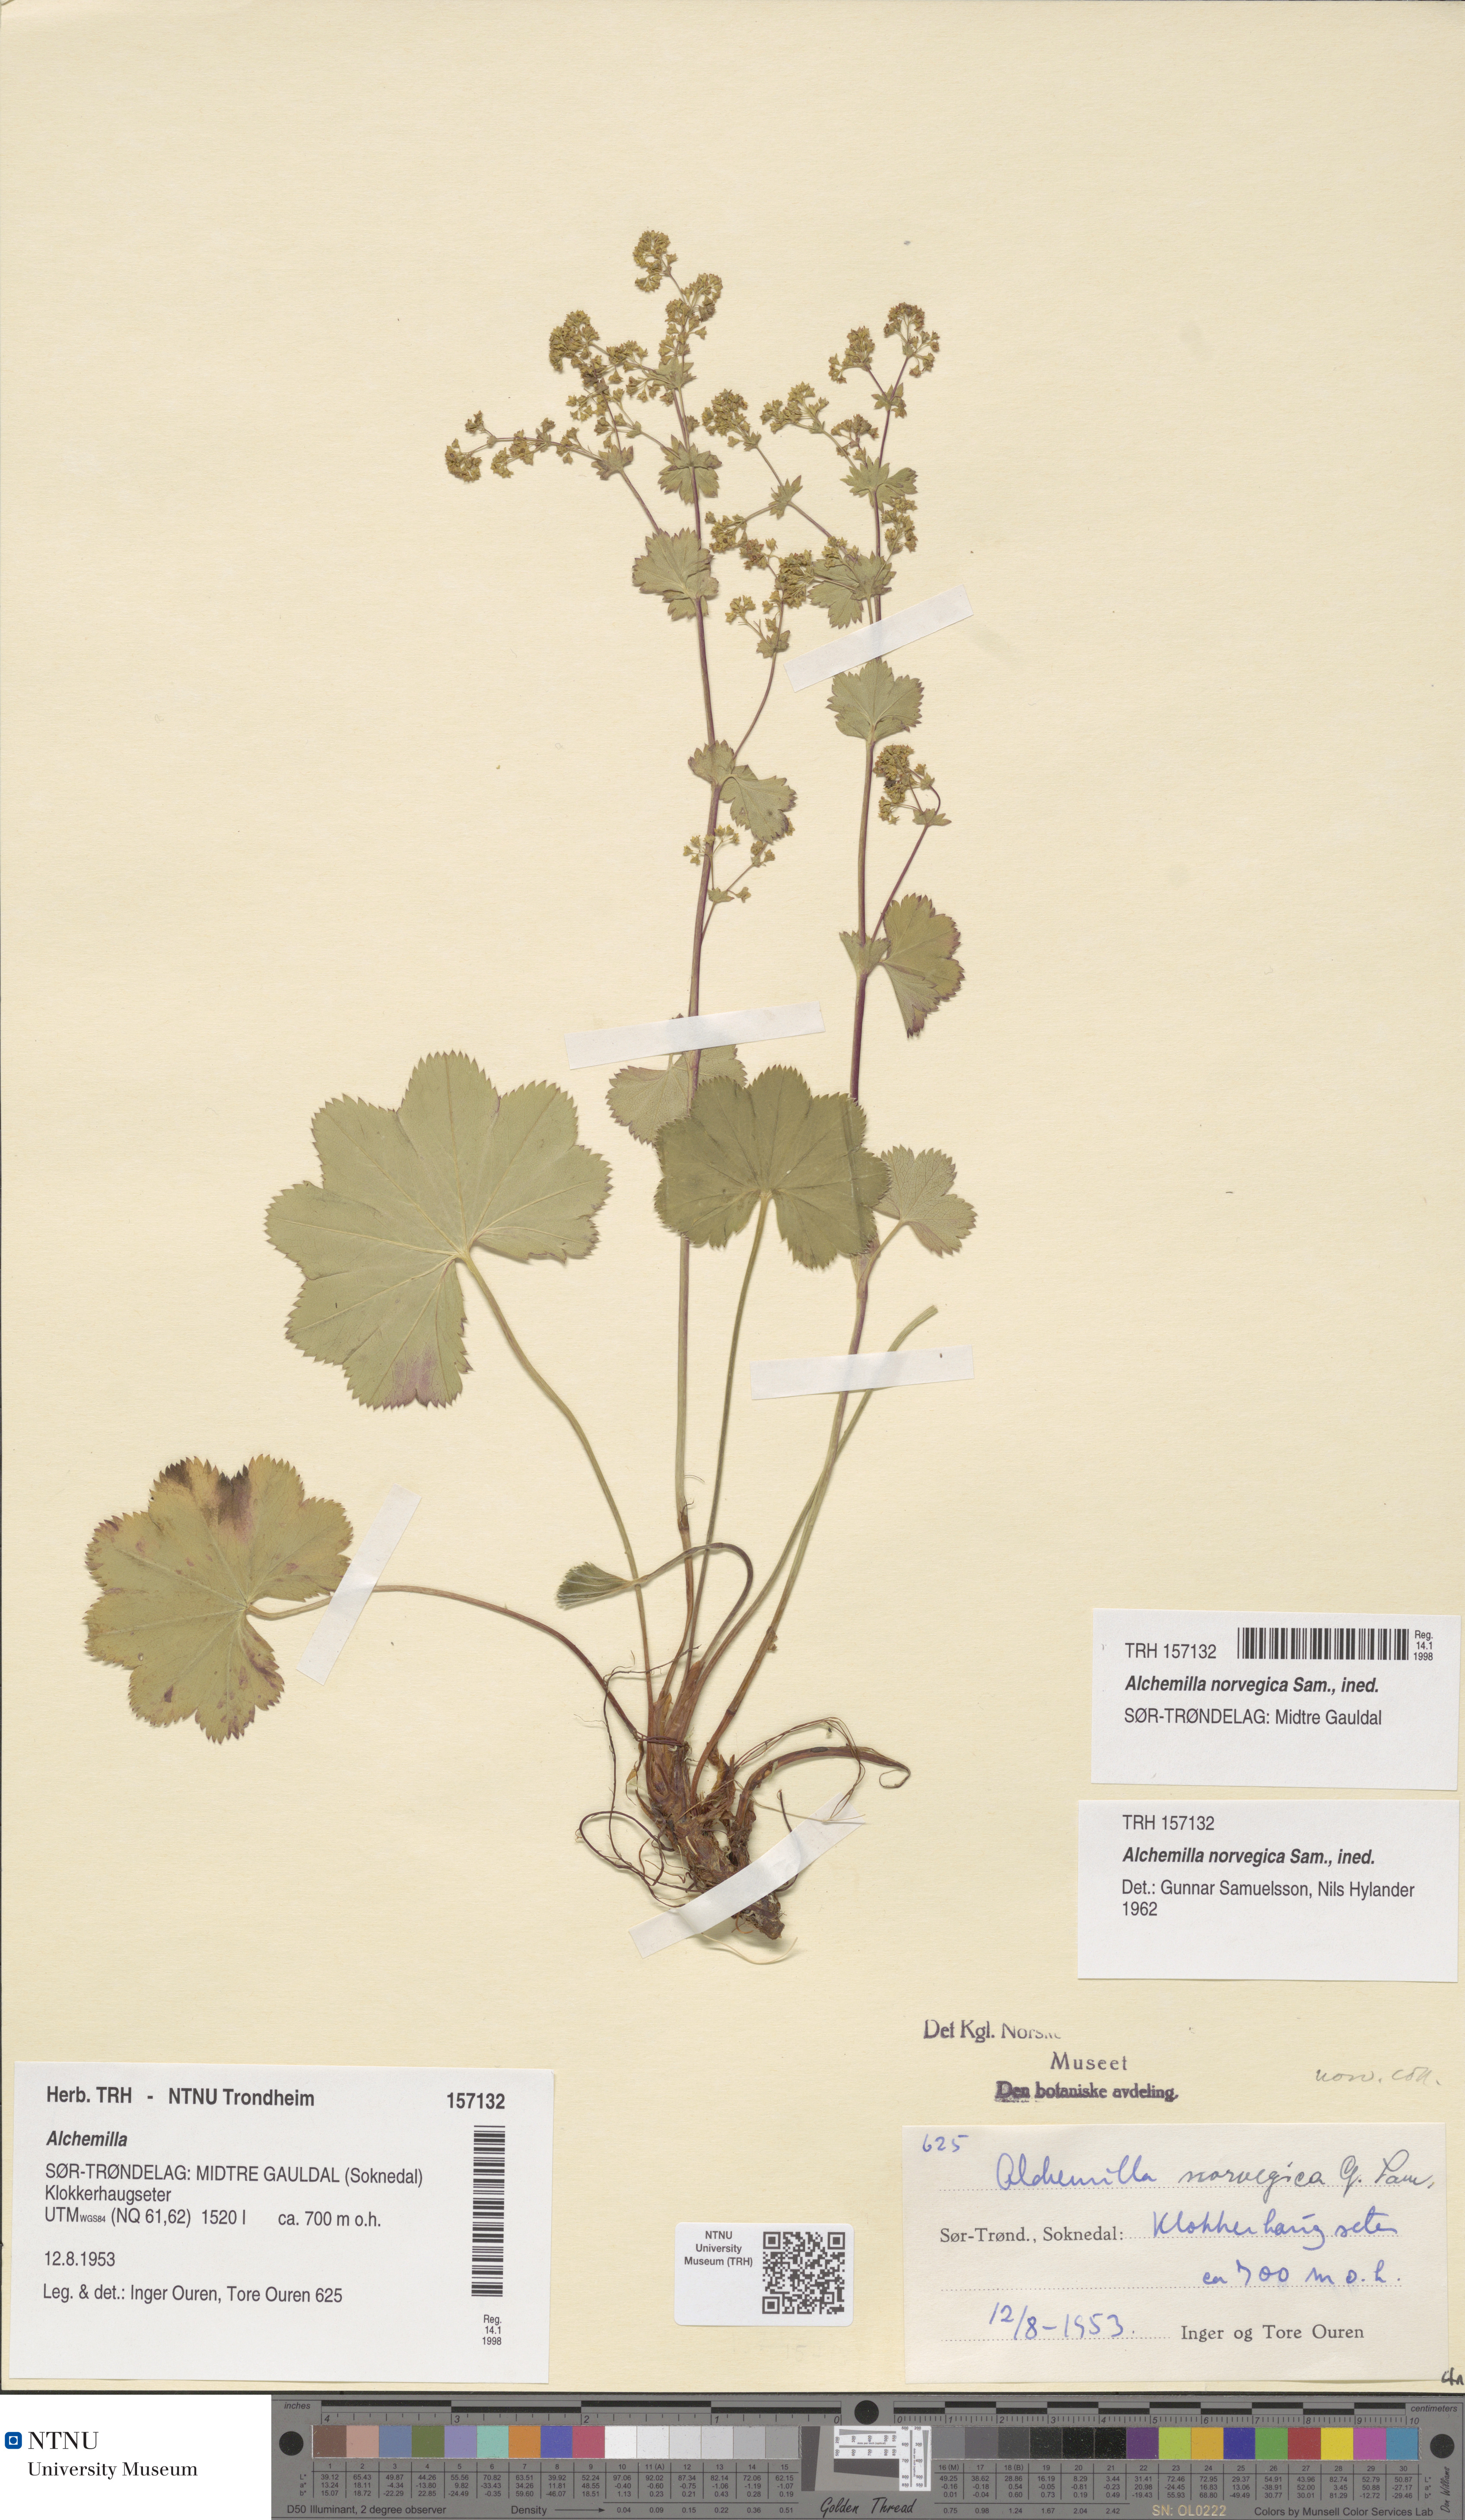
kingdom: Plantae
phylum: Tracheophyta
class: Magnoliopsida
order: Rosales
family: Rosaceae
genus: Alchemilla
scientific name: Alchemilla norvegica
